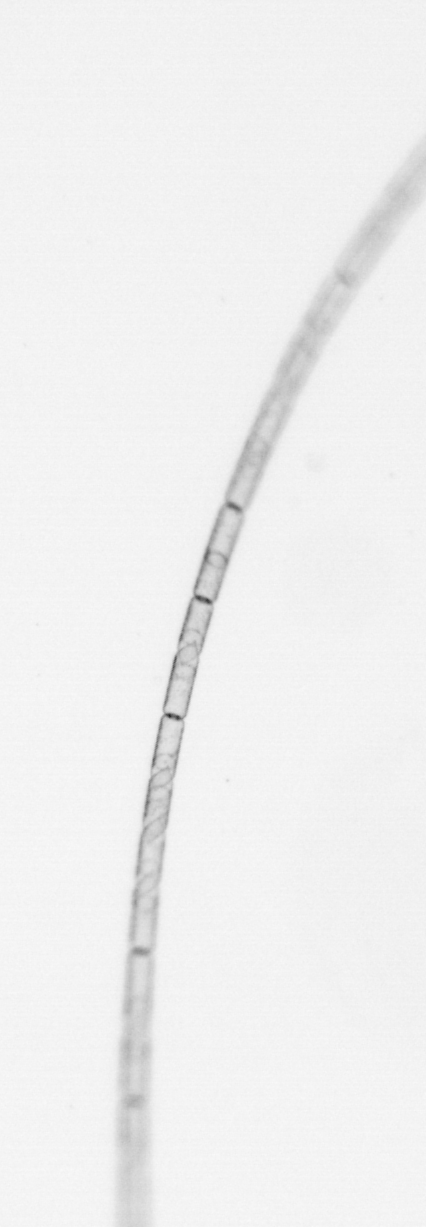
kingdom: Chromista
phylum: Ochrophyta
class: Bacillariophyceae
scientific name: Bacillariophyceae
